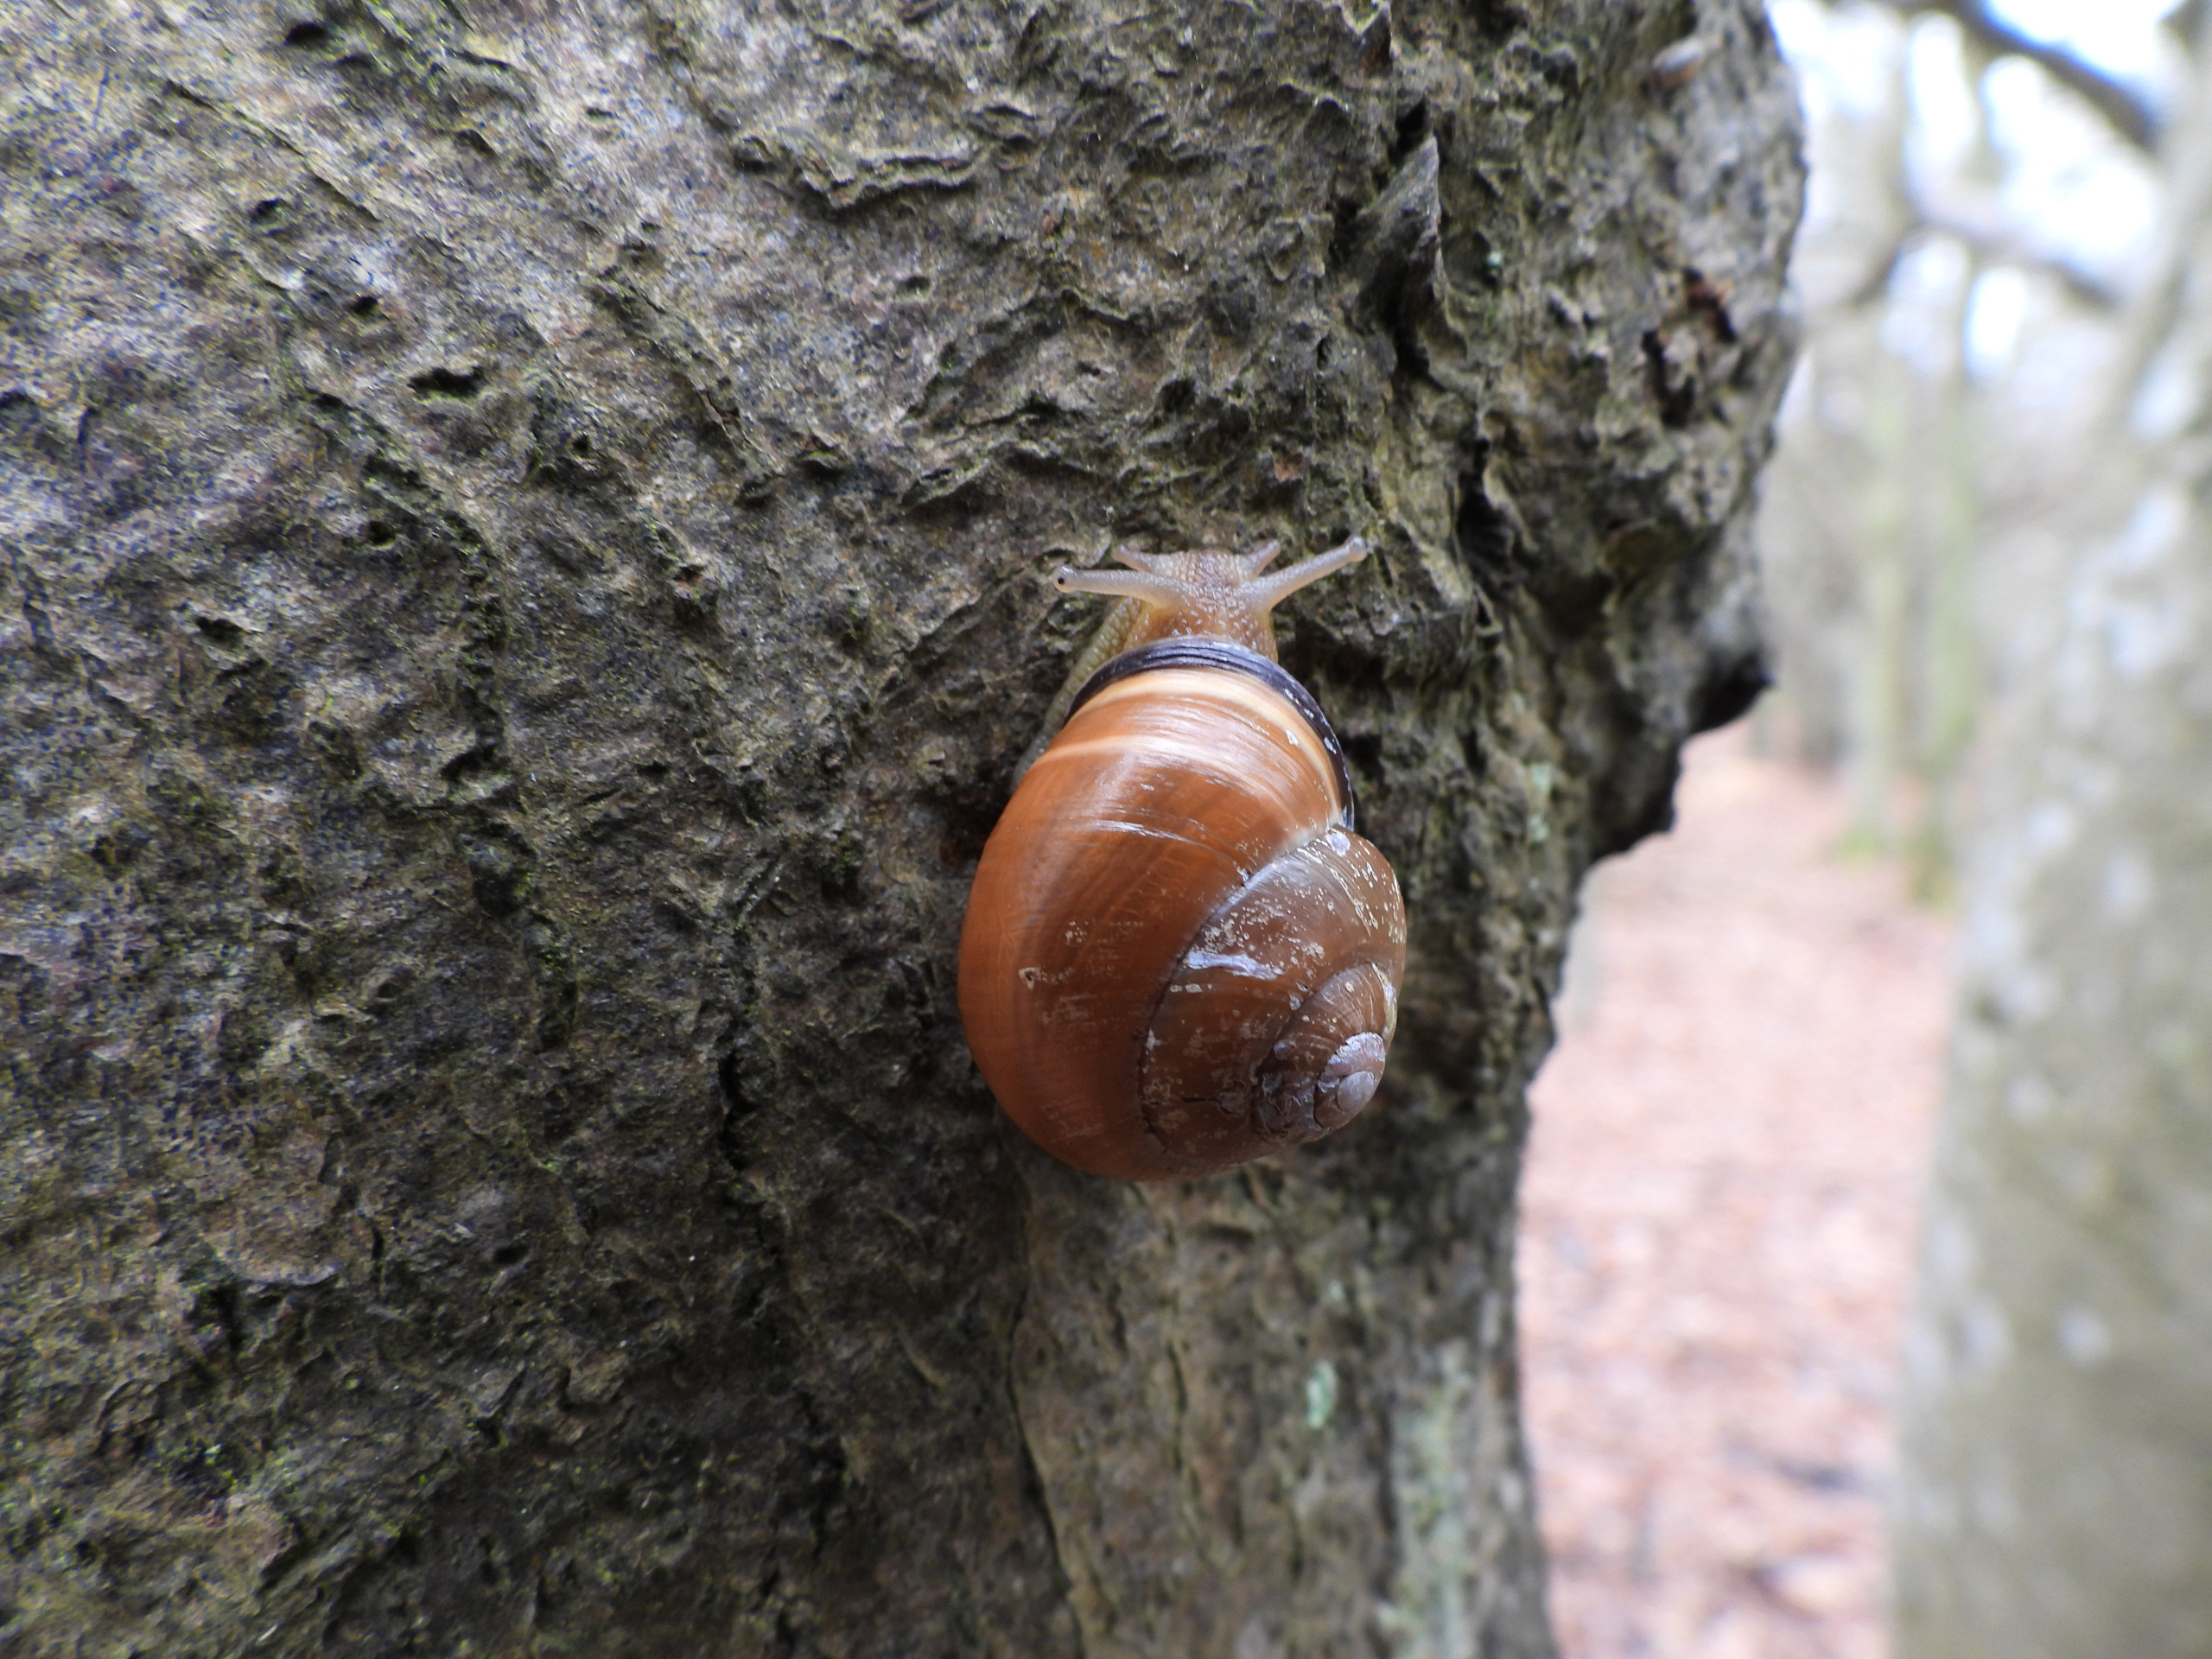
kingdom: Animalia
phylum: Mollusca
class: Gastropoda
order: Stylommatophora
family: Helicidae
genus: Cepaea
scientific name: Cepaea nemoralis
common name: Lundsnegl
